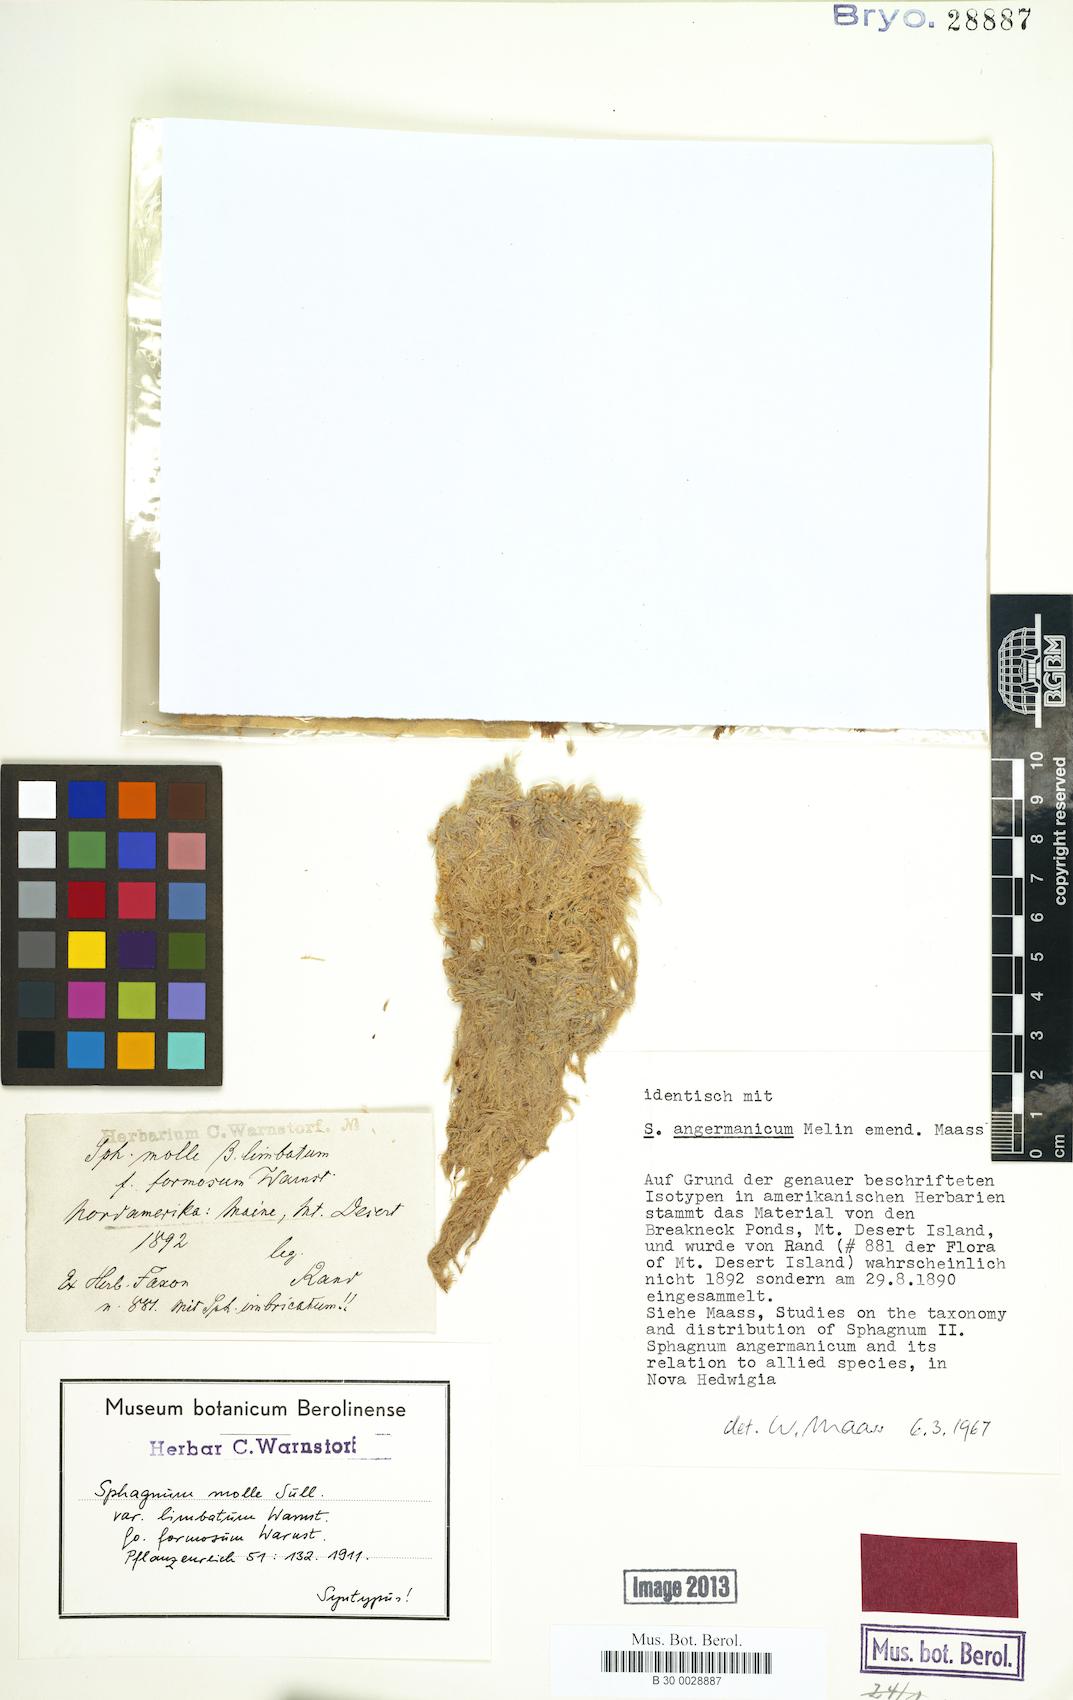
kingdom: Plantae
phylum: Bryophyta
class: Sphagnopsida
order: Sphagnales
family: Sphagnaceae
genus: Sphagnum
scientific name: Sphagnum angermanicum
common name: Angerman's peat moss
